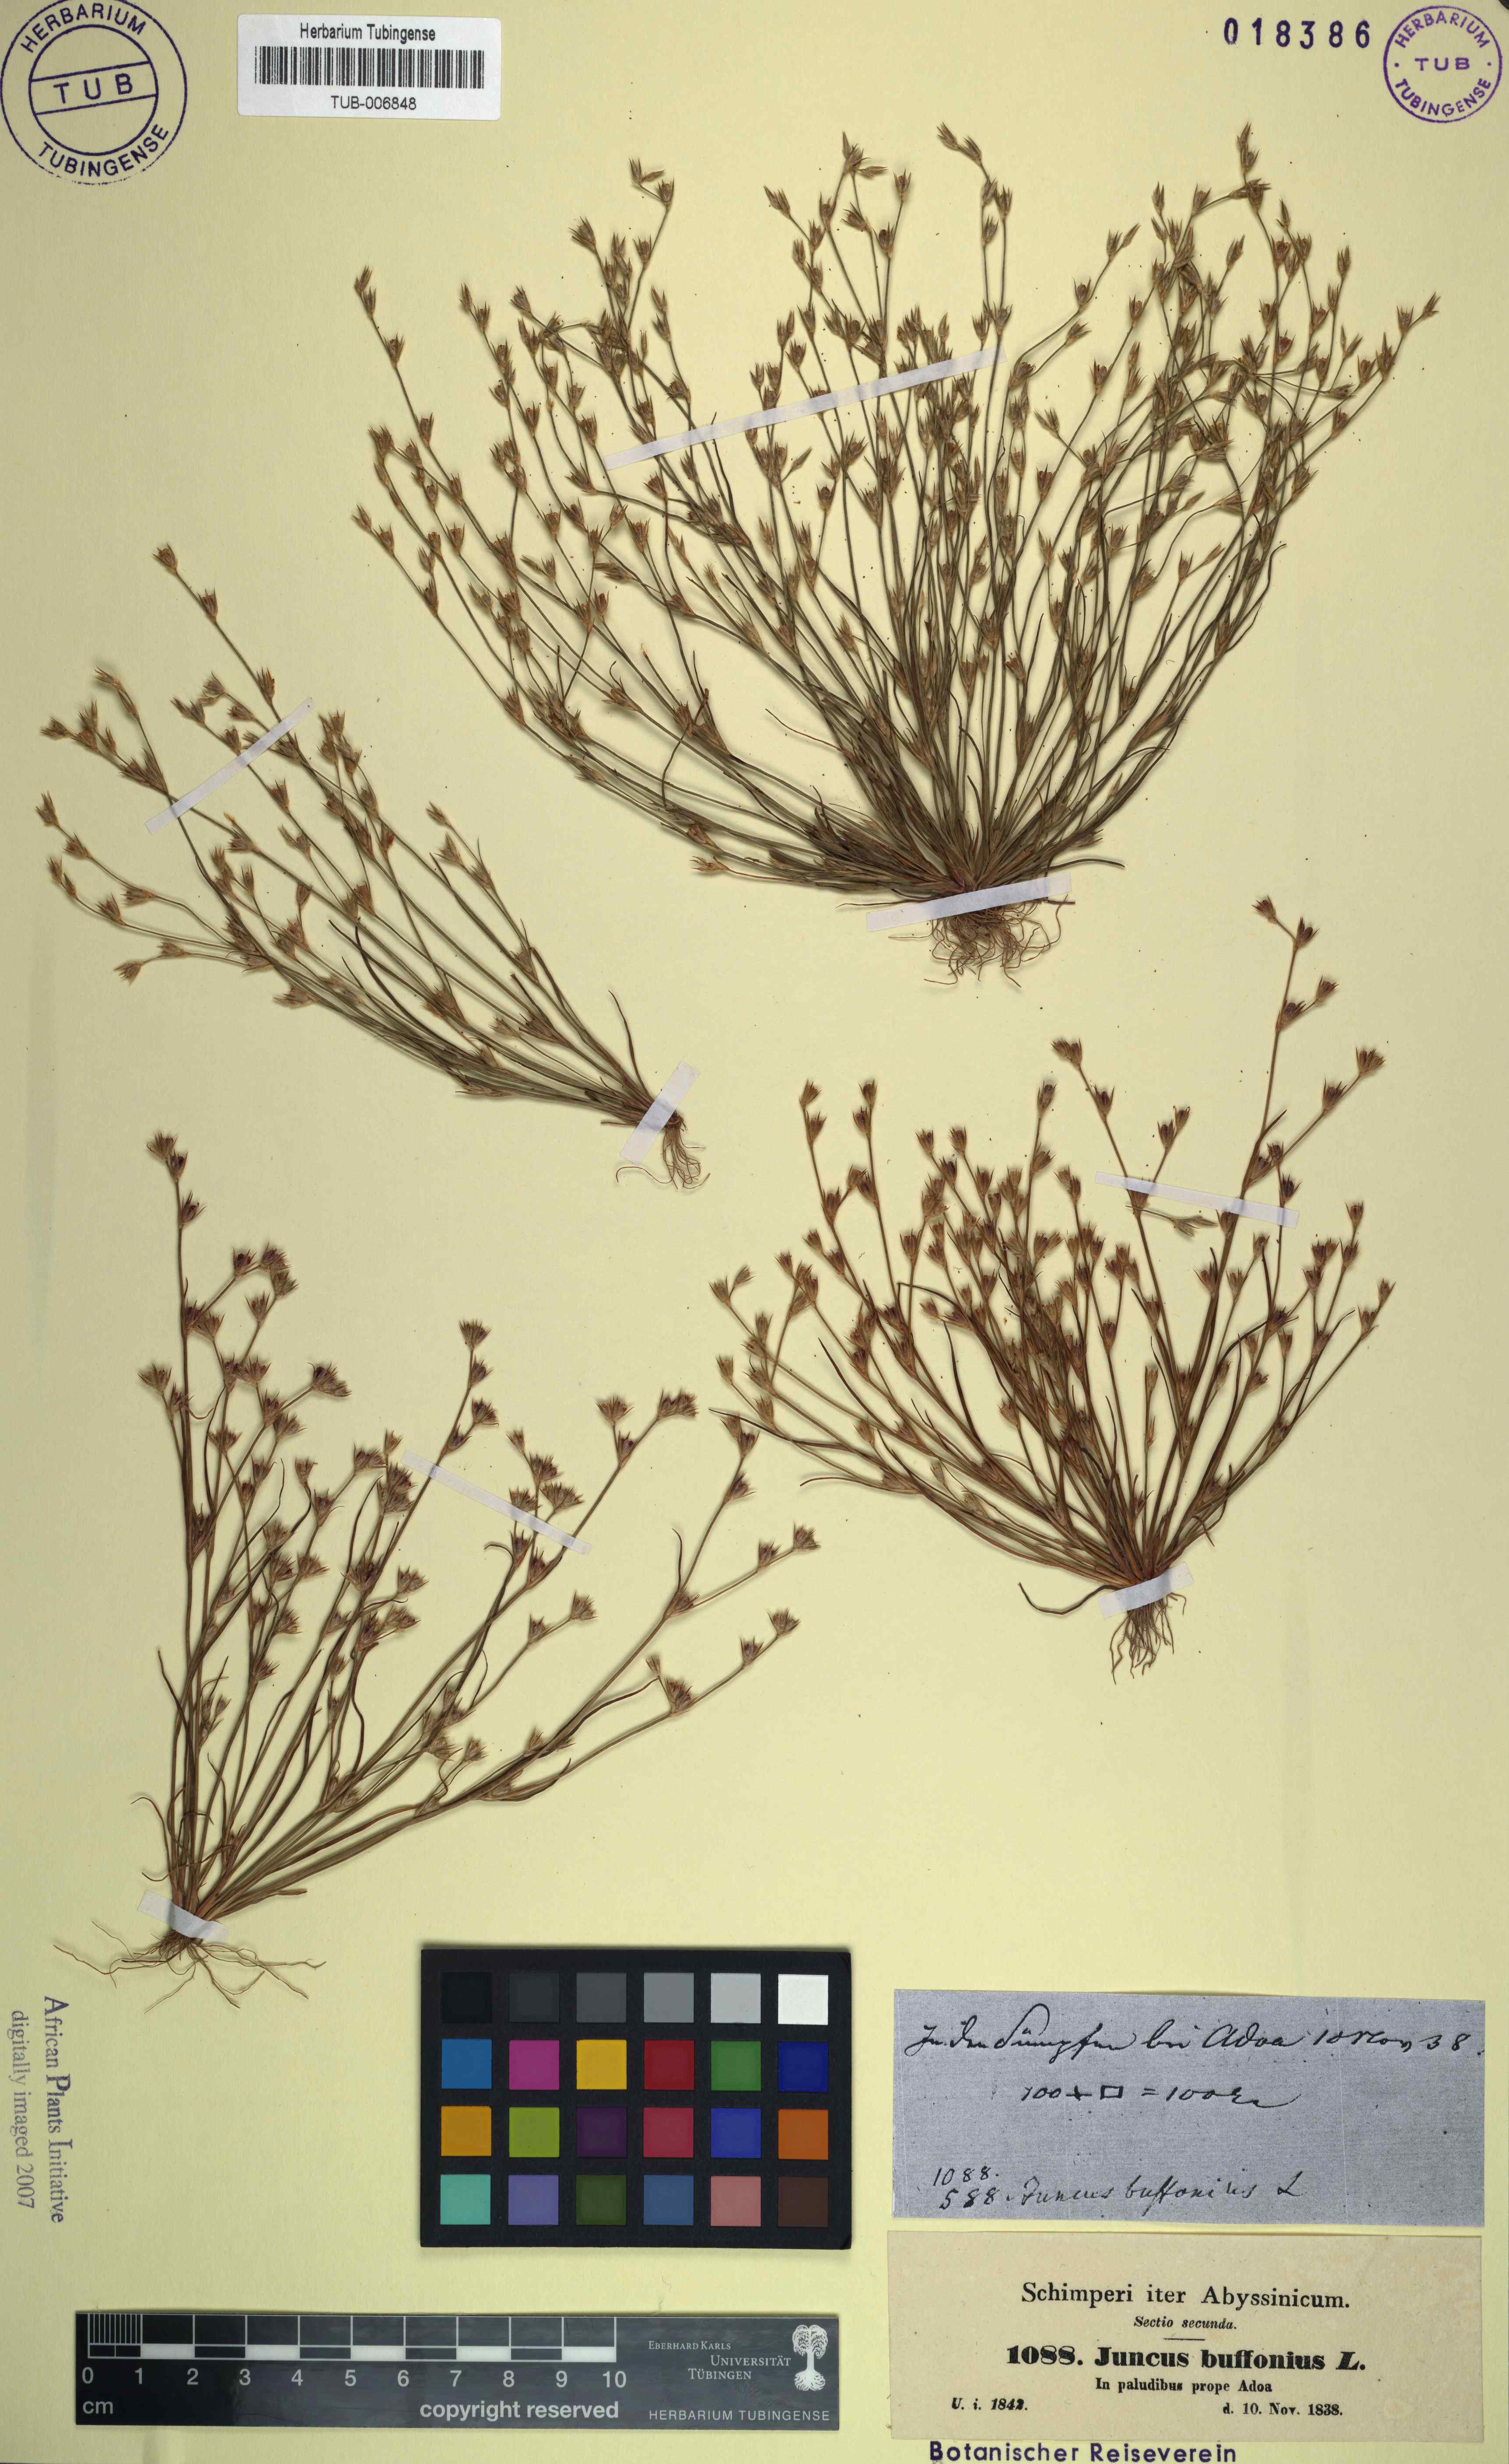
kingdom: Plantae
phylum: Tracheophyta
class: Liliopsida
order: Poales
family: Juncaceae
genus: Juncus
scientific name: Juncus bufonius
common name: Toad rush
